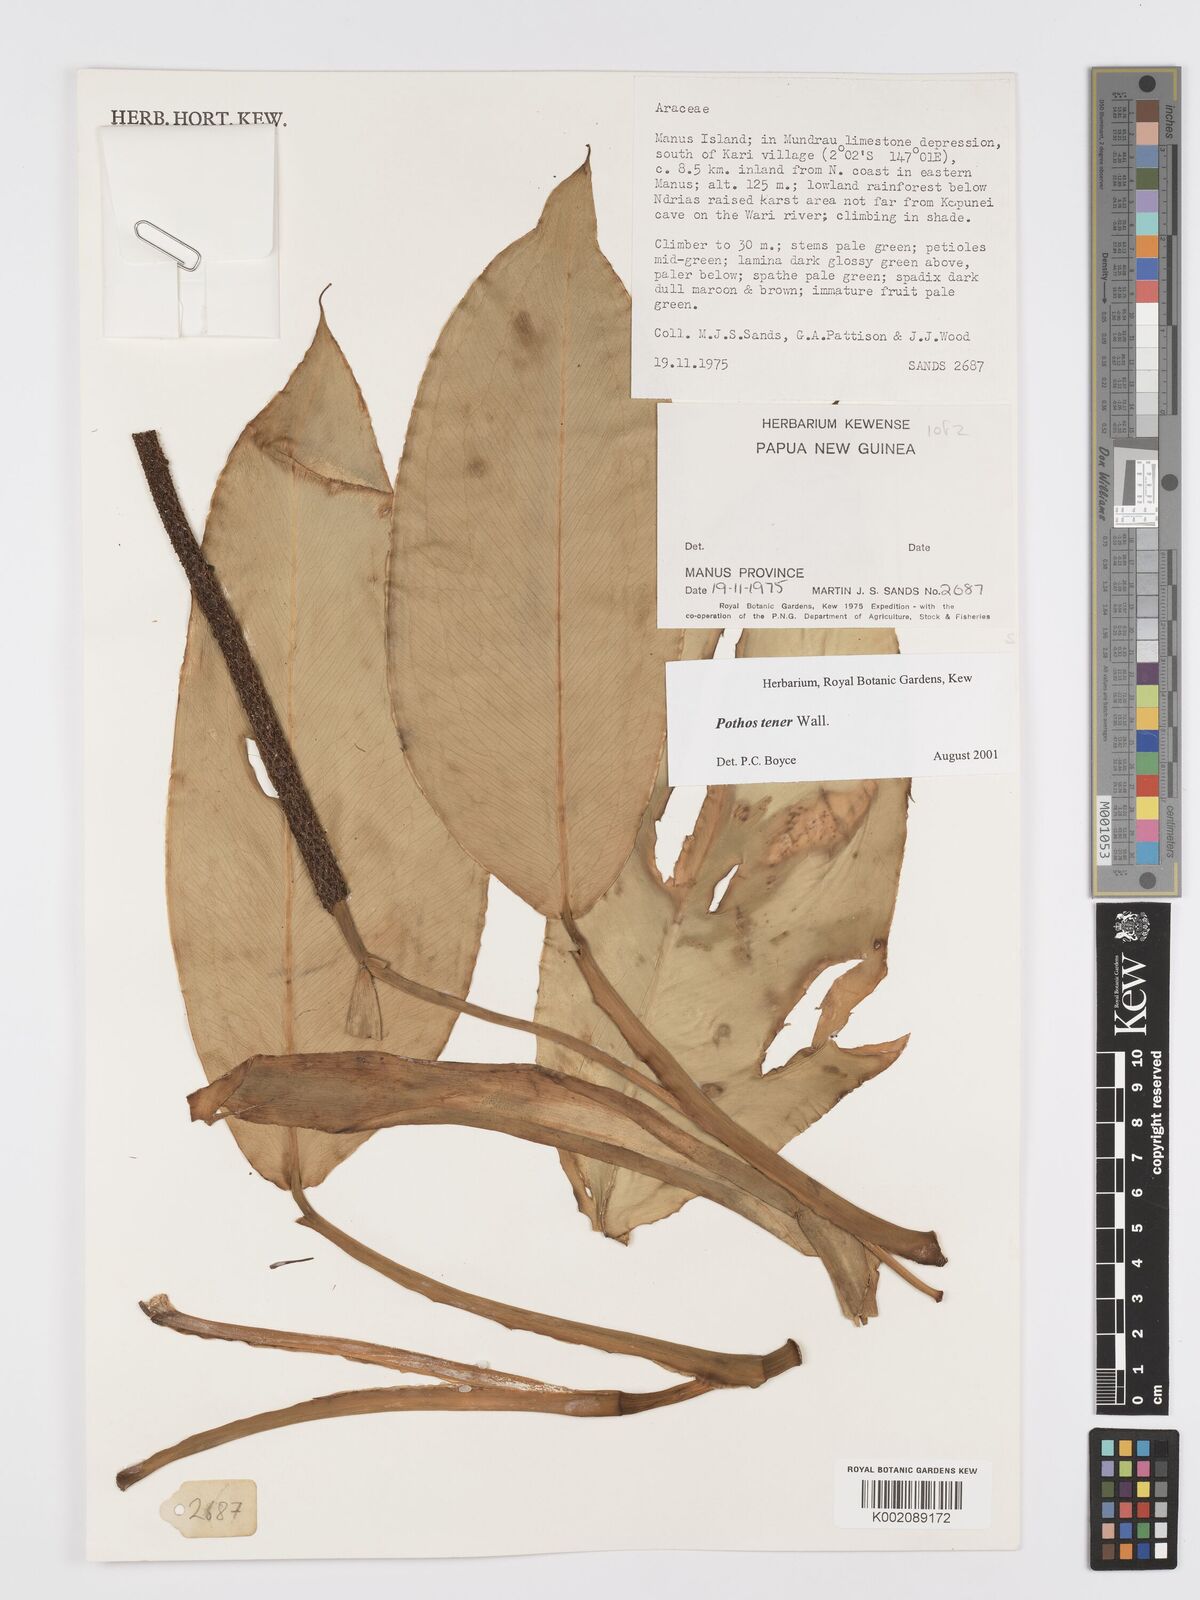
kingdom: Plantae
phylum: Tracheophyta
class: Liliopsida
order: Alismatales
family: Araceae
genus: Pothos
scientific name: Pothos tener
